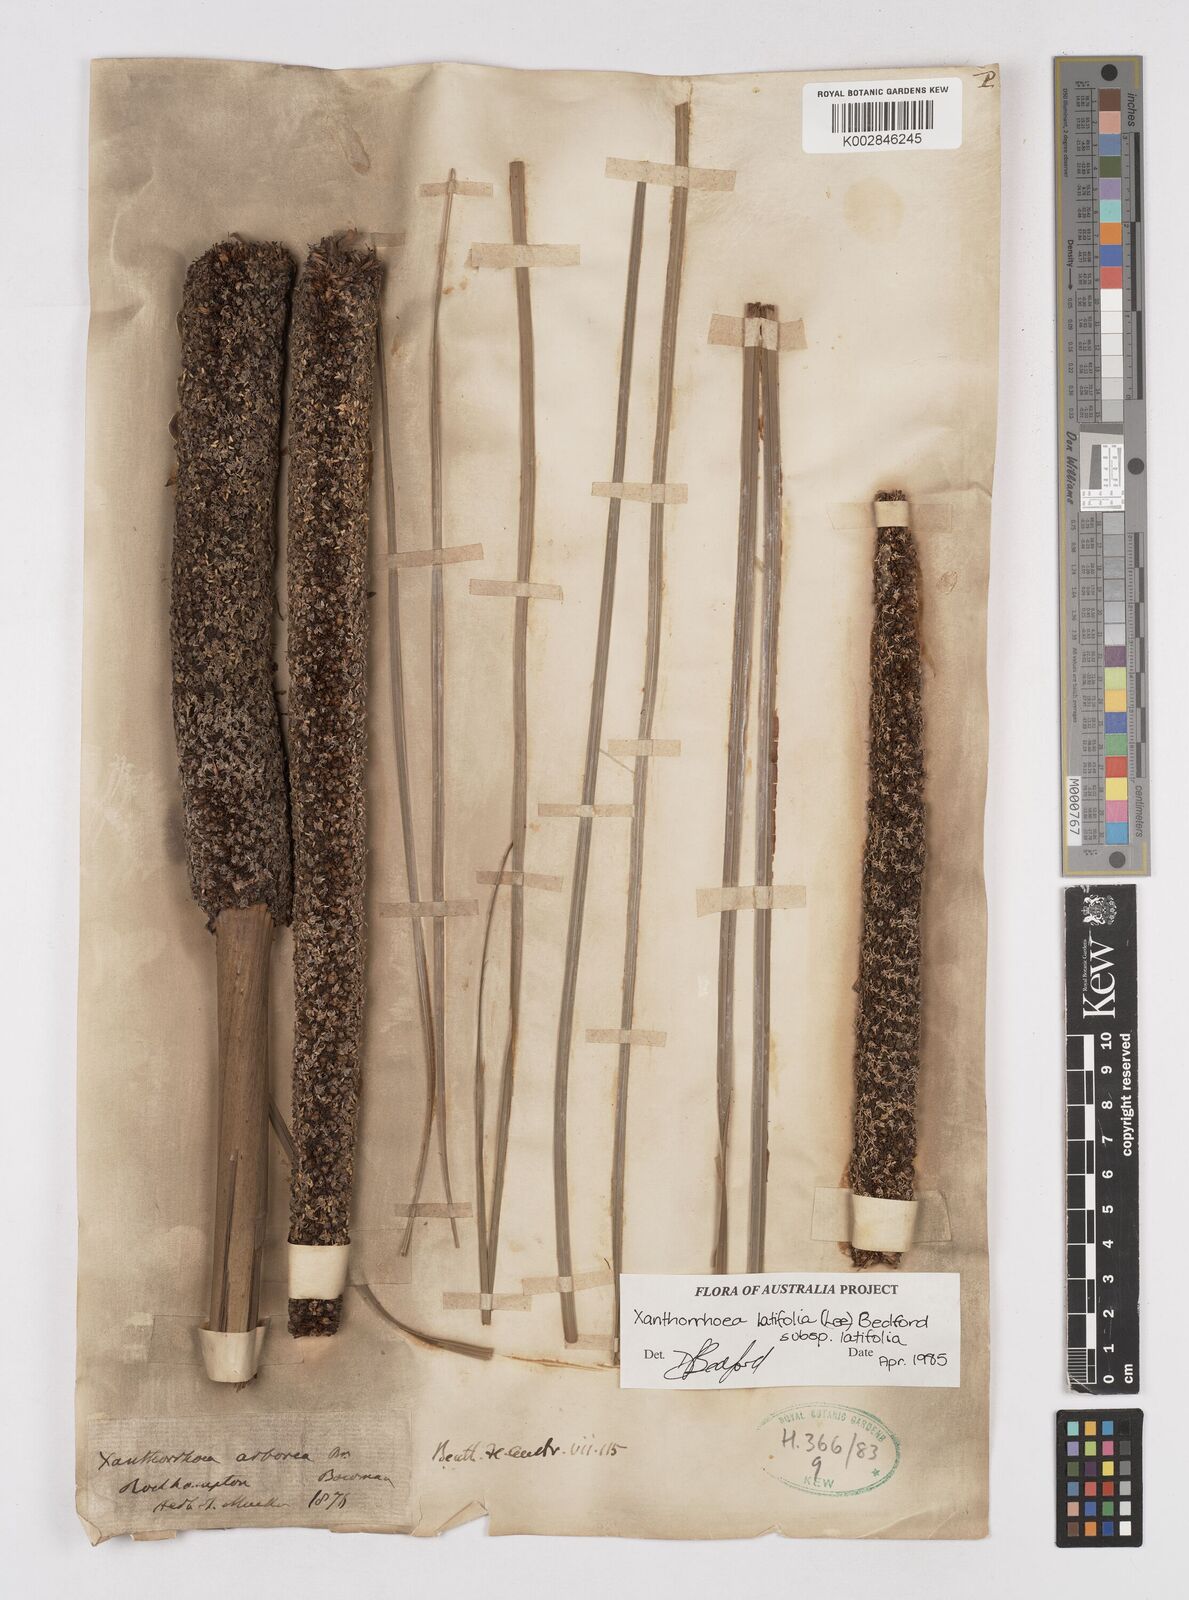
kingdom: Plantae
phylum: Tracheophyta
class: Liliopsida
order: Asparagales
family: Asphodelaceae
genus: Xanthorrhoea
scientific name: Xanthorrhoea latifolia
